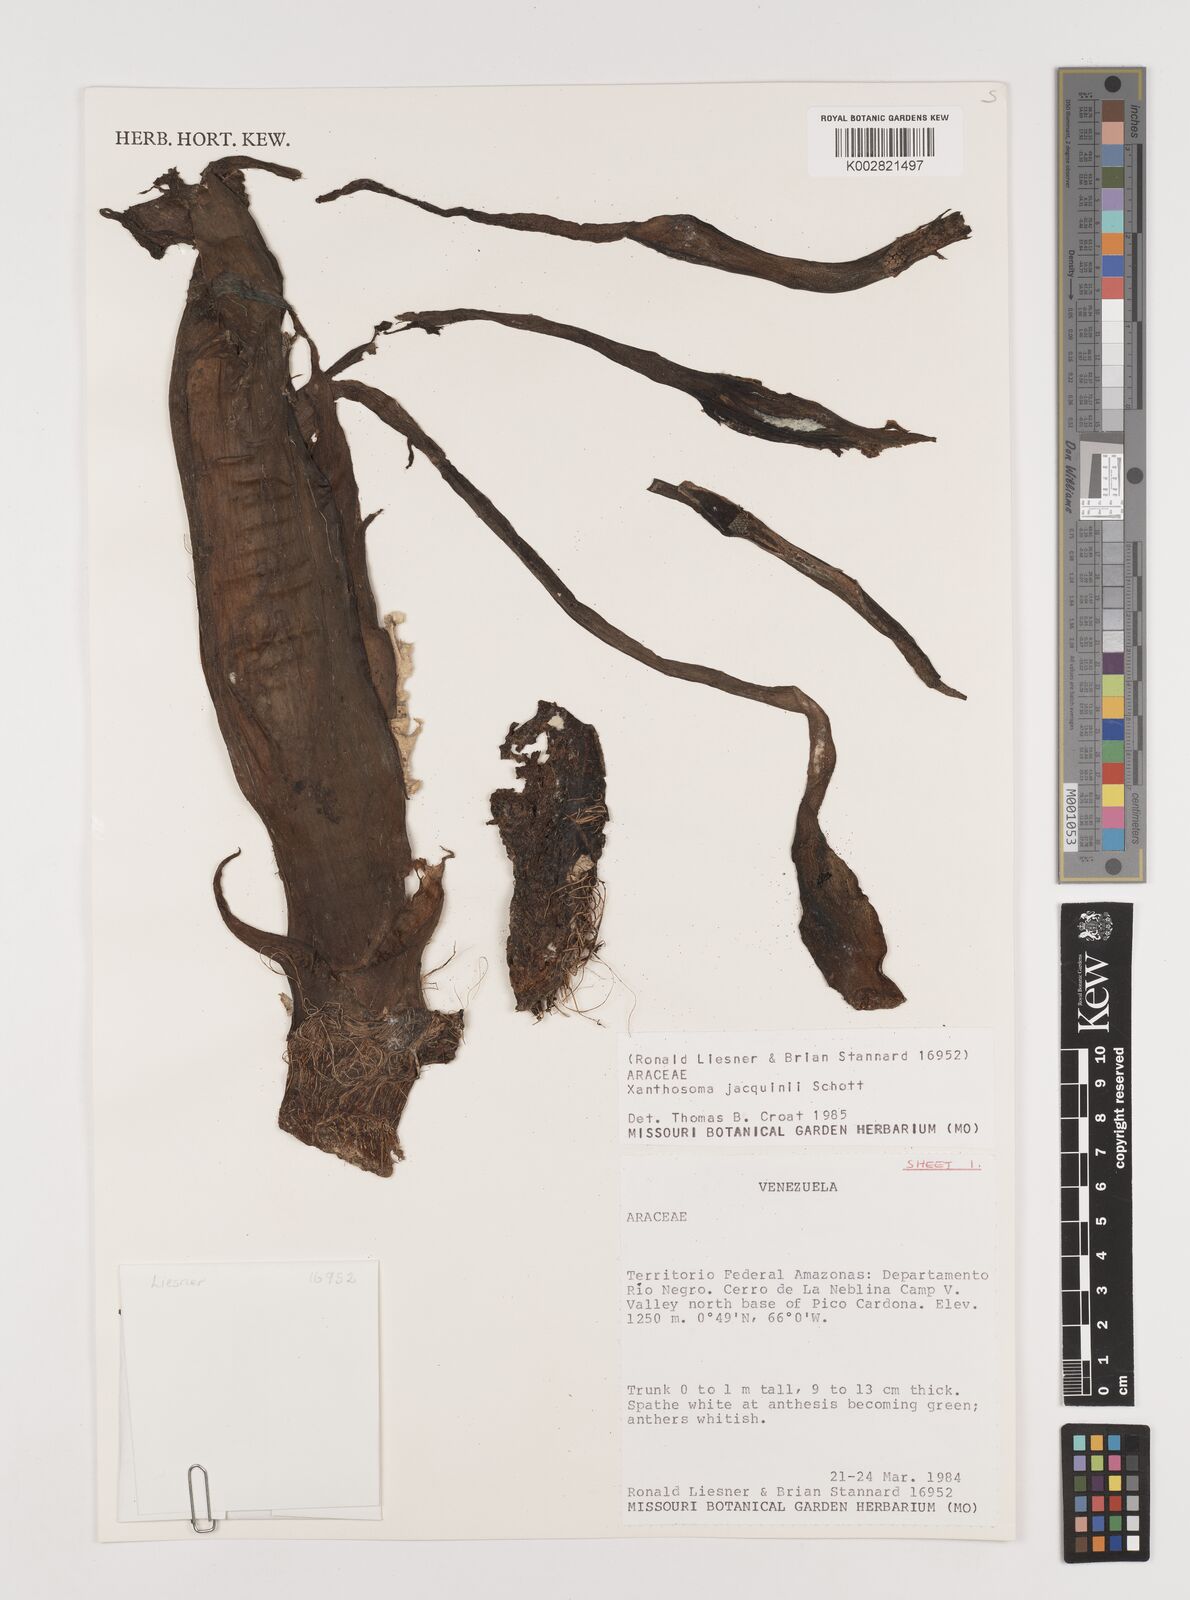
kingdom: Plantae
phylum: Tracheophyta
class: Liliopsida
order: Alismatales
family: Araceae
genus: Xanthosoma
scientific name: Xanthosoma undipes
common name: Tall elephant's ear
